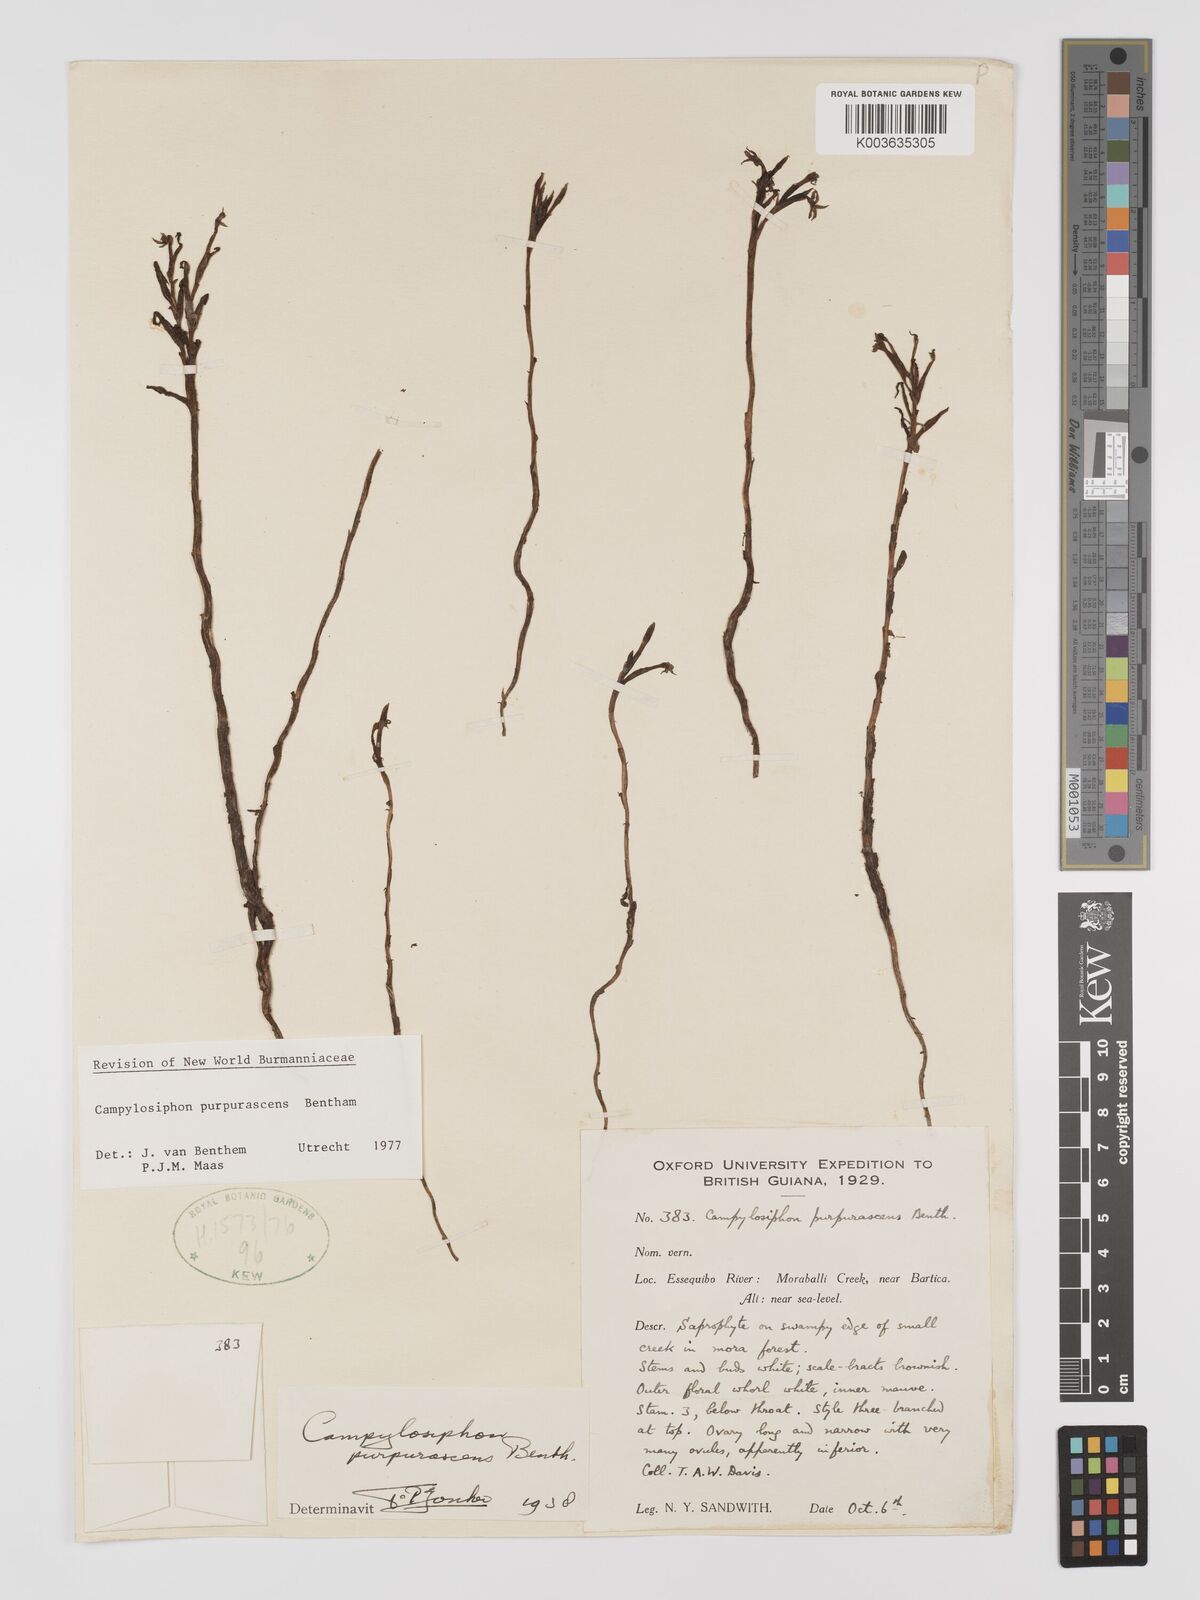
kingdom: Plantae
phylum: Tracheophyta
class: Liliopsida
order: Dioscoreales
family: Burmanniaceae
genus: Campylosiphon
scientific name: Campylosiphon purpurascens
